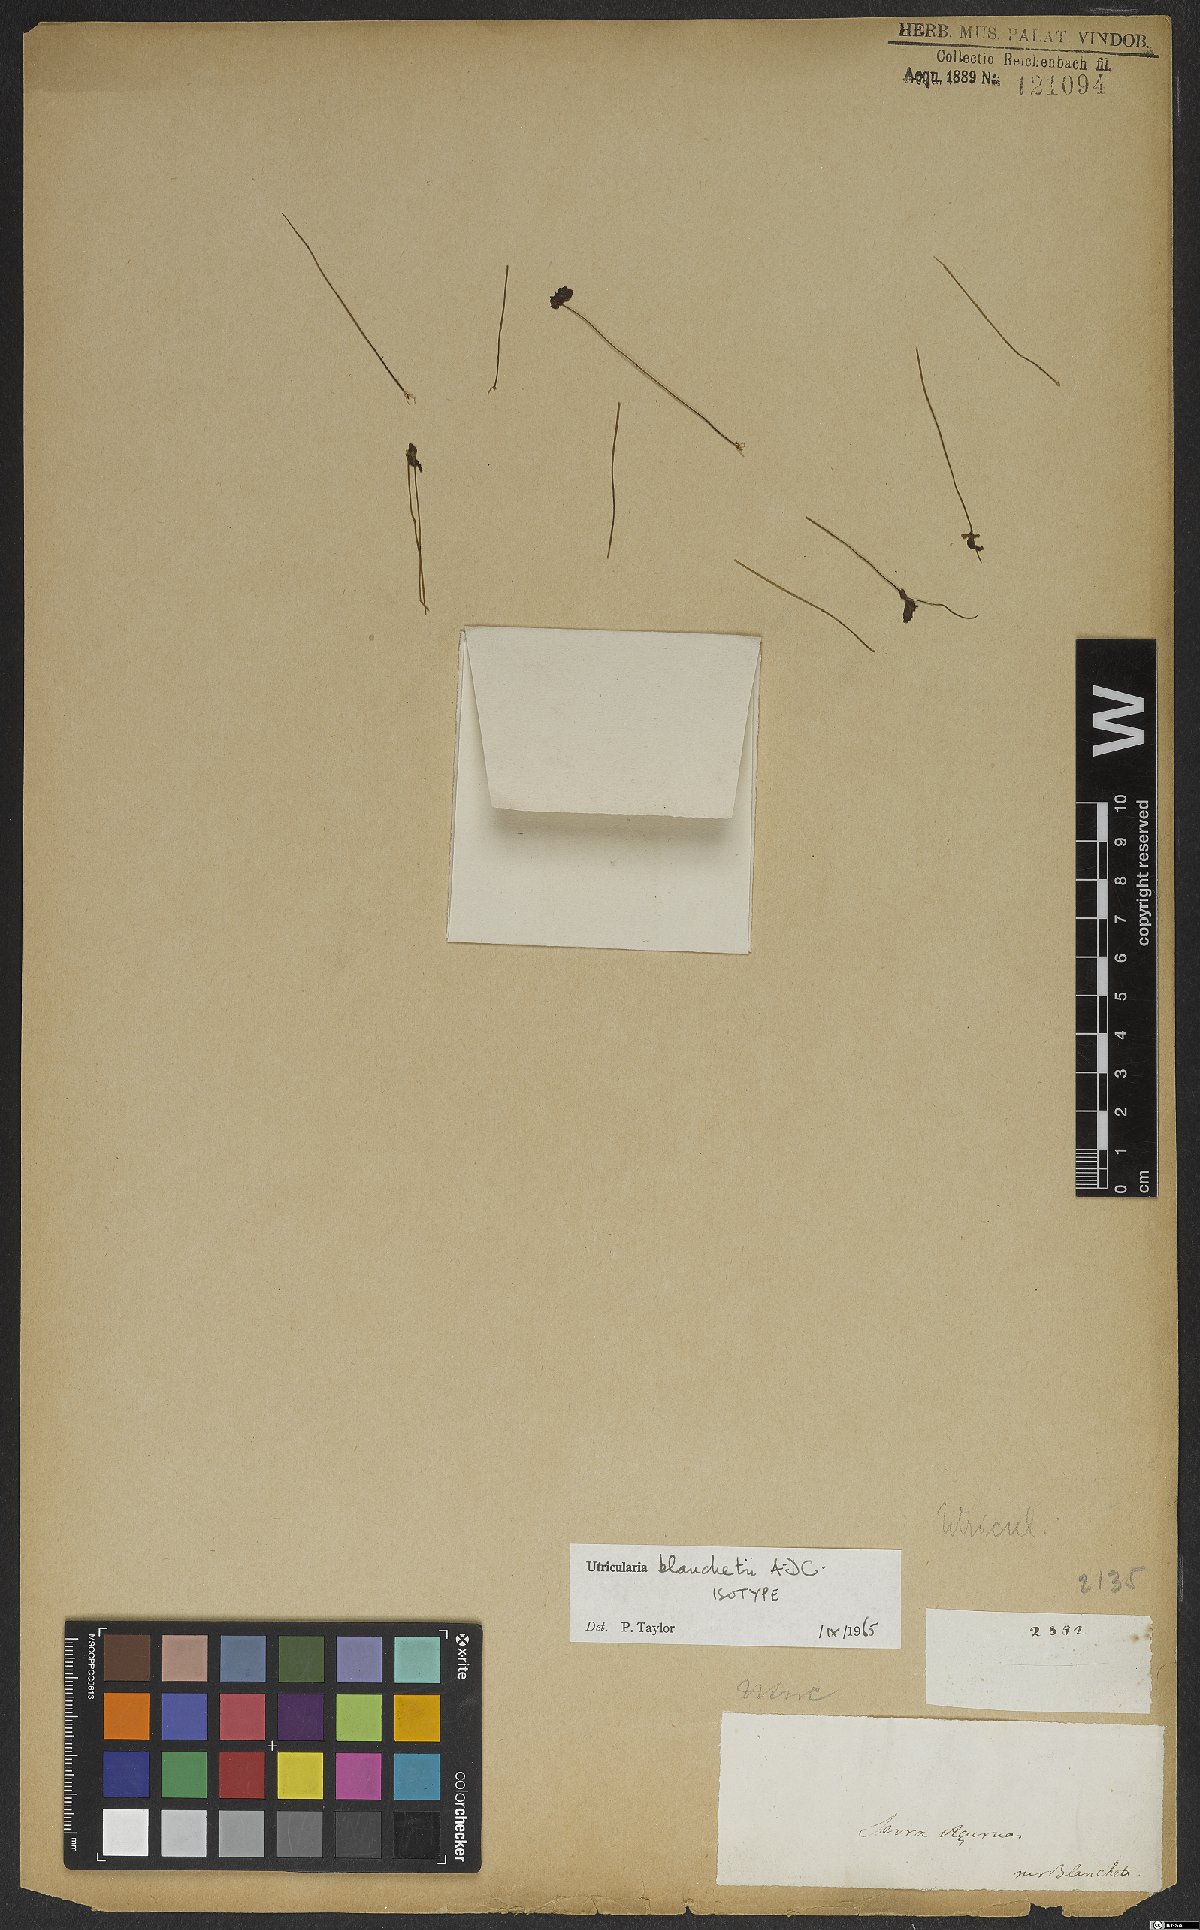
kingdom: Plantae
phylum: Tracheophyta
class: Magnoliopsida
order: Lamiales
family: Lentibulariaceae
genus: Utricularia
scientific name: Utricularia blanchetii
